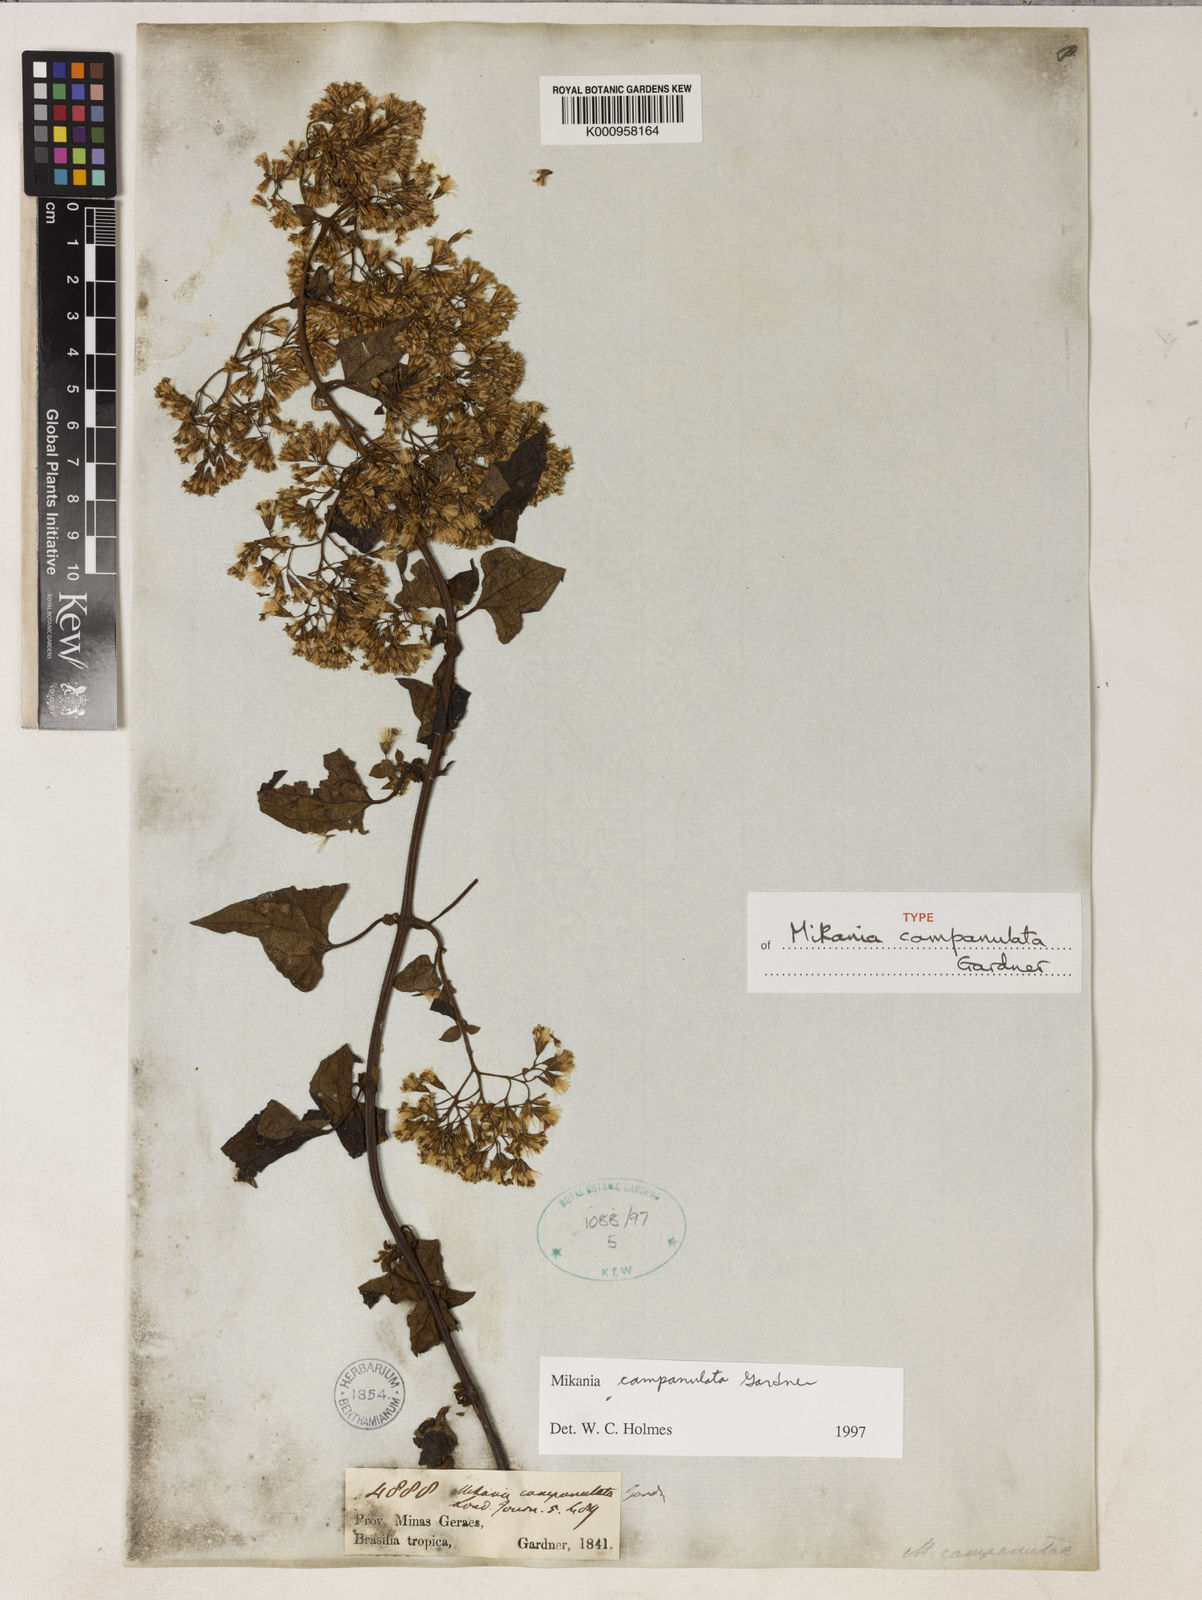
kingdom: Plantae
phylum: Tracheophyta
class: Magnoliopsida
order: Asterales
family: Asteraceae
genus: Mikania
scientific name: Mikania campanulata
